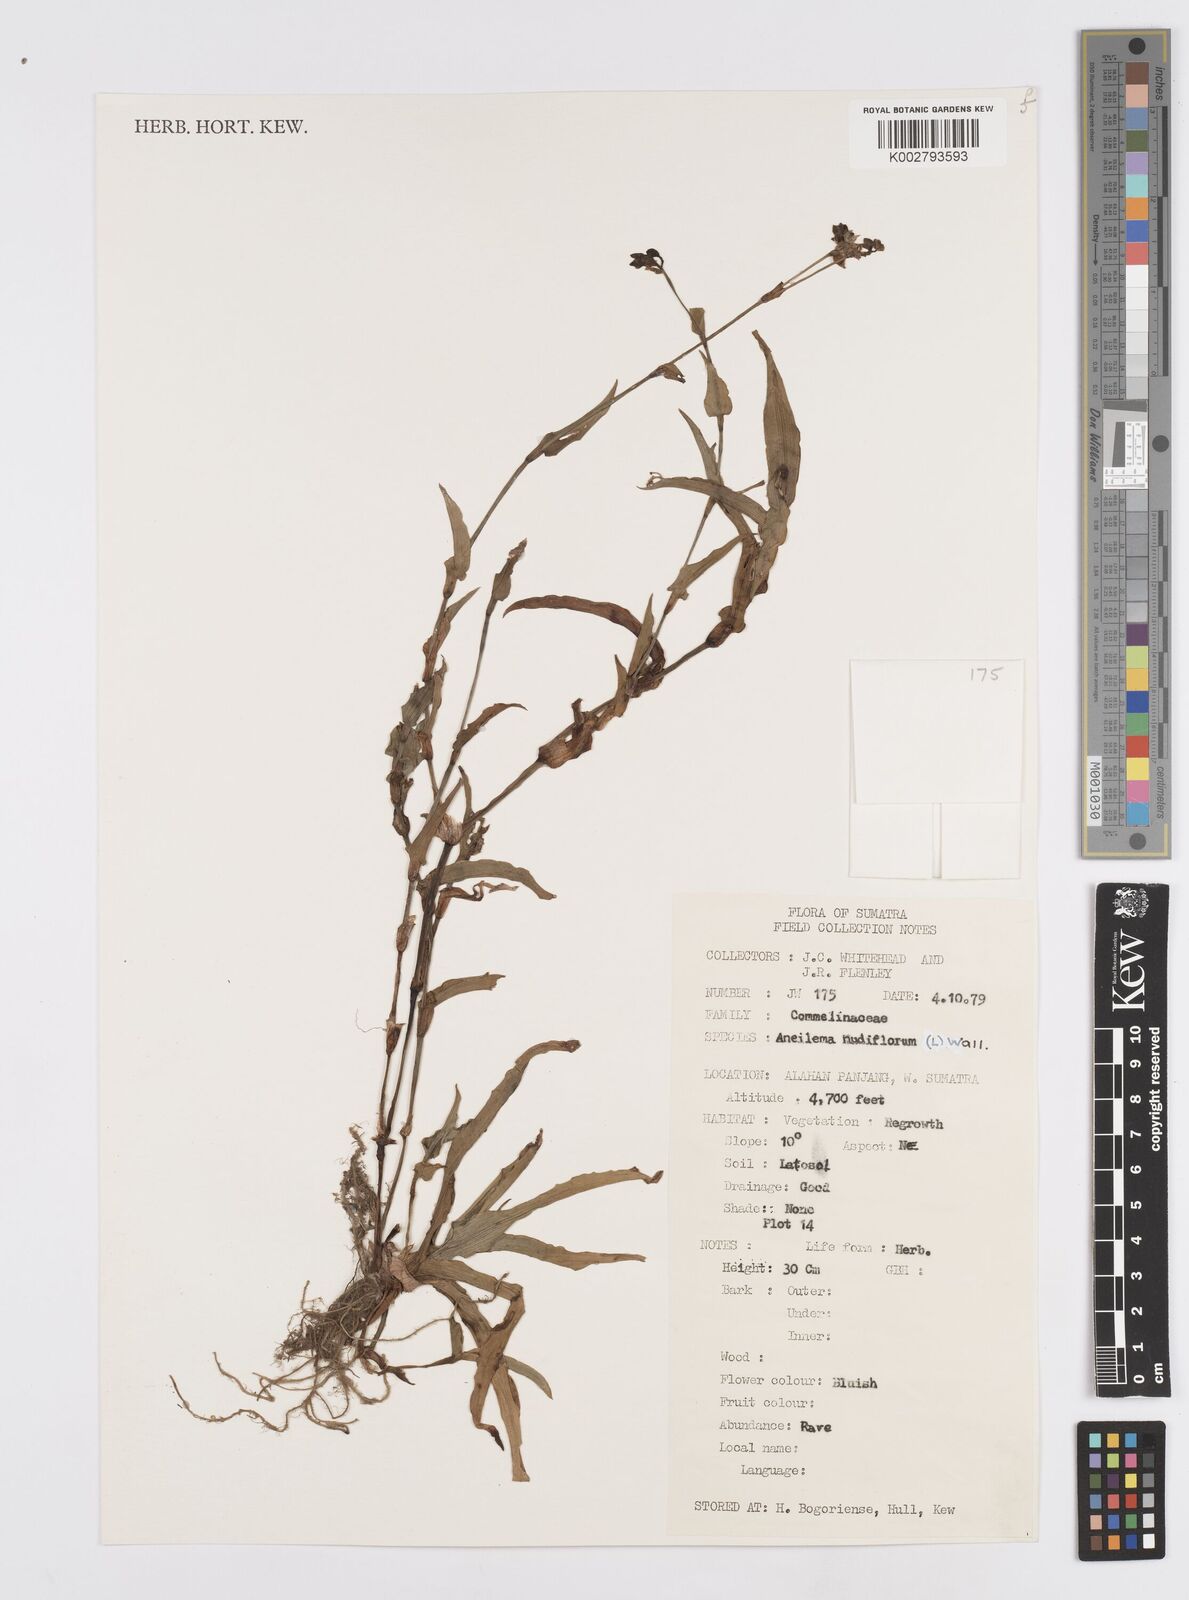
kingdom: Plantae
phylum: Tracheophyta
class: Liliopsida
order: Commelinales
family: Commelinaceae
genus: Murdannia
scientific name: Murdannia nudiflora
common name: Nakedstem dewflower
